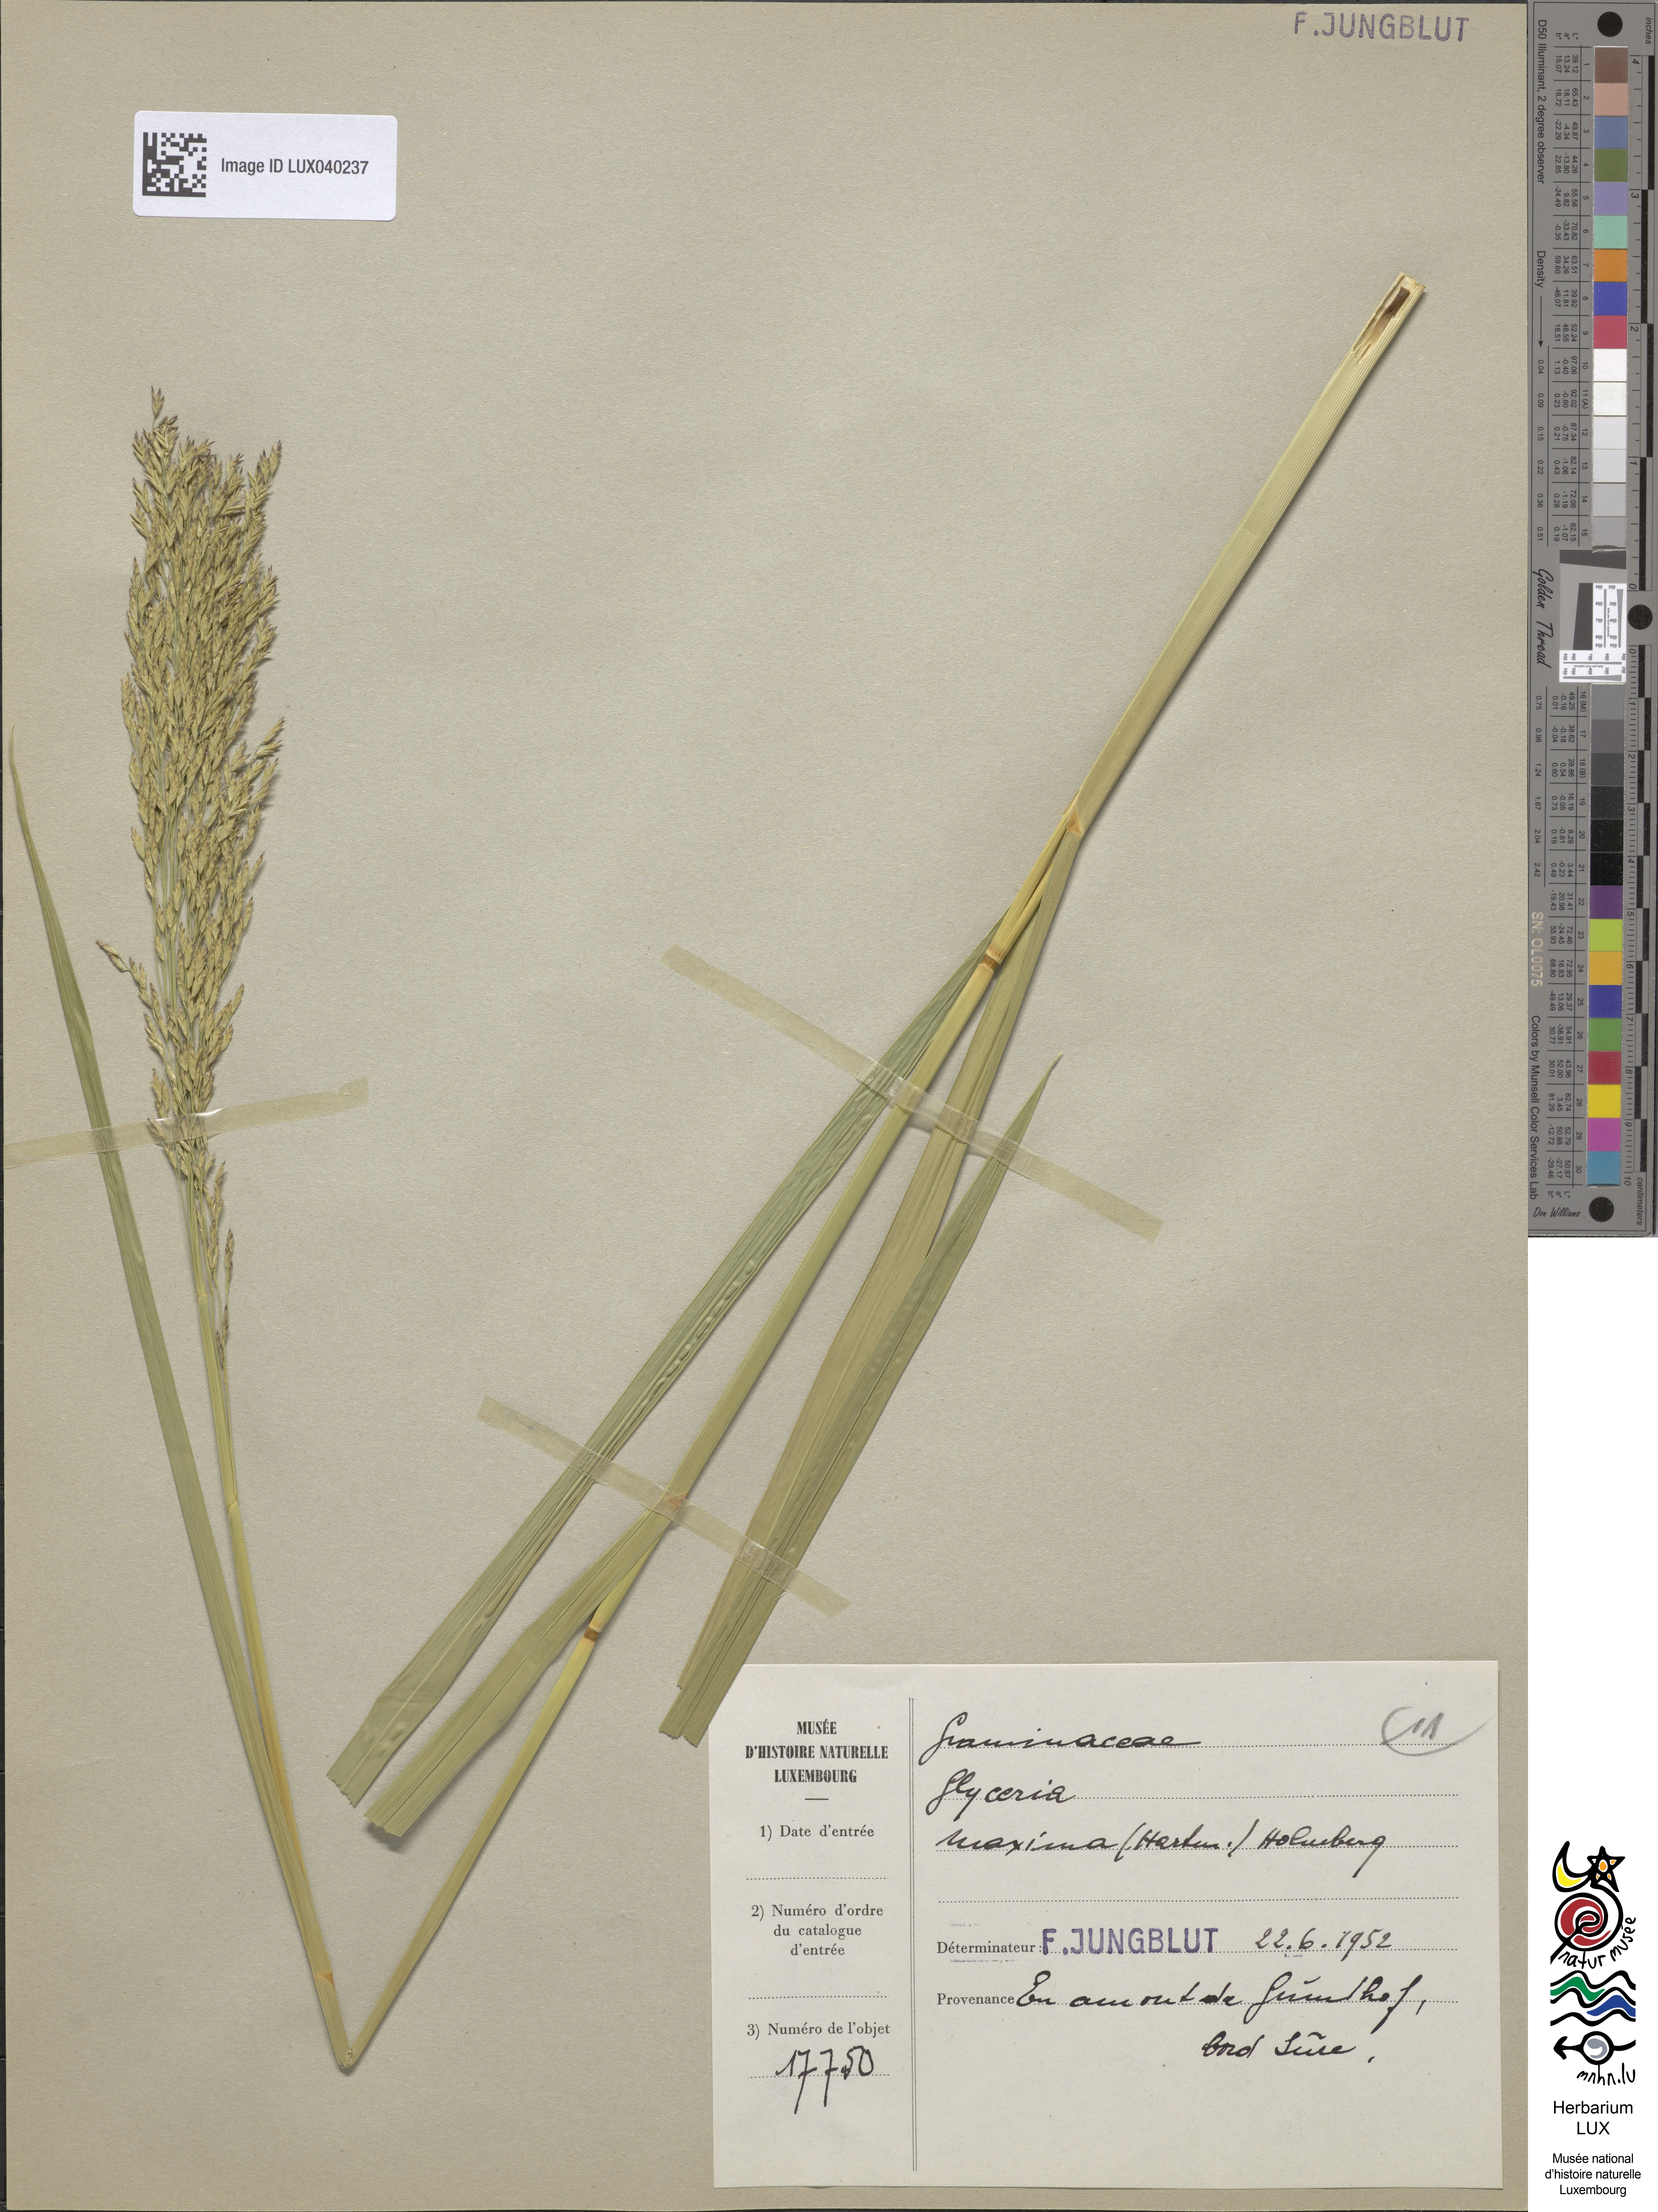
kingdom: Plantae
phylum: Tracheophyta
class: Liliopsida
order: Poales
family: Poaceae
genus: Glyceria
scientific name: Glyceria maxima
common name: Reed mannagrass
